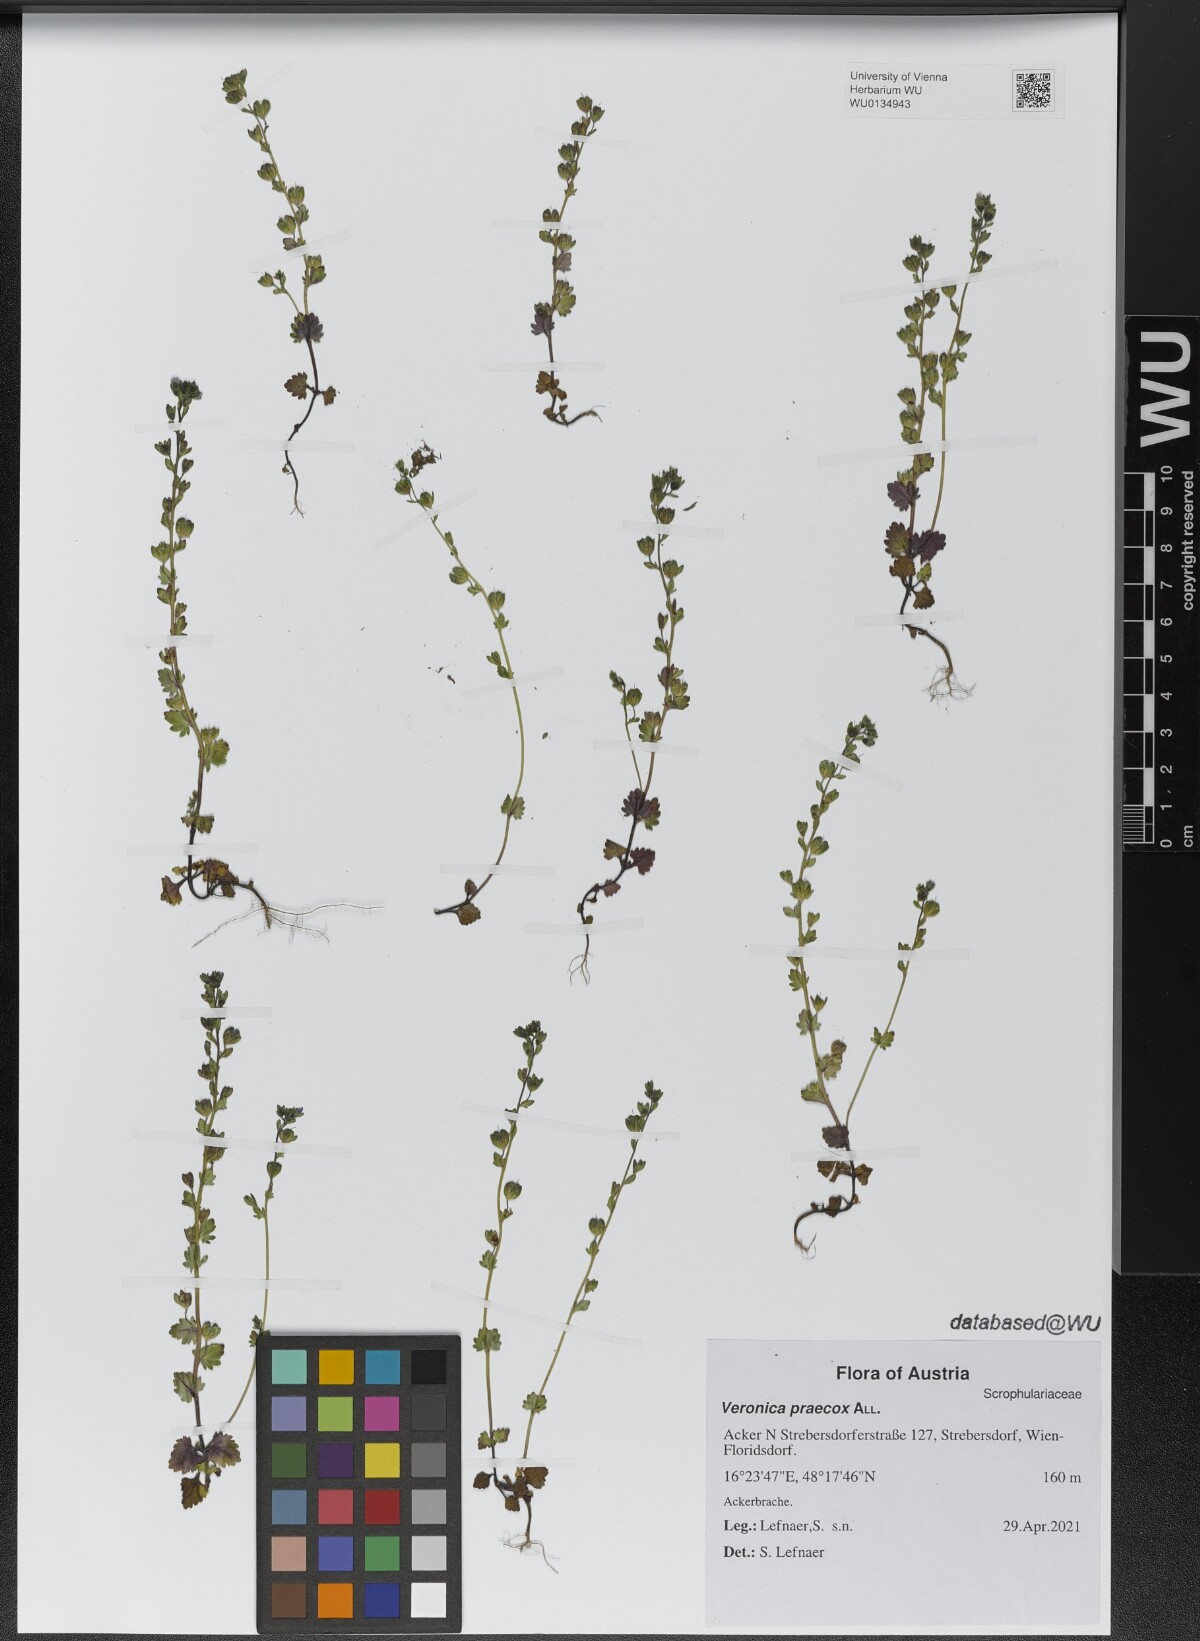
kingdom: Plantae
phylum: Tracheophyta
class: Magnoliopsida
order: Lamiales
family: Plantaginaceae
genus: Veronica
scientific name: Veronica praecox
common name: Breckland speedwell
